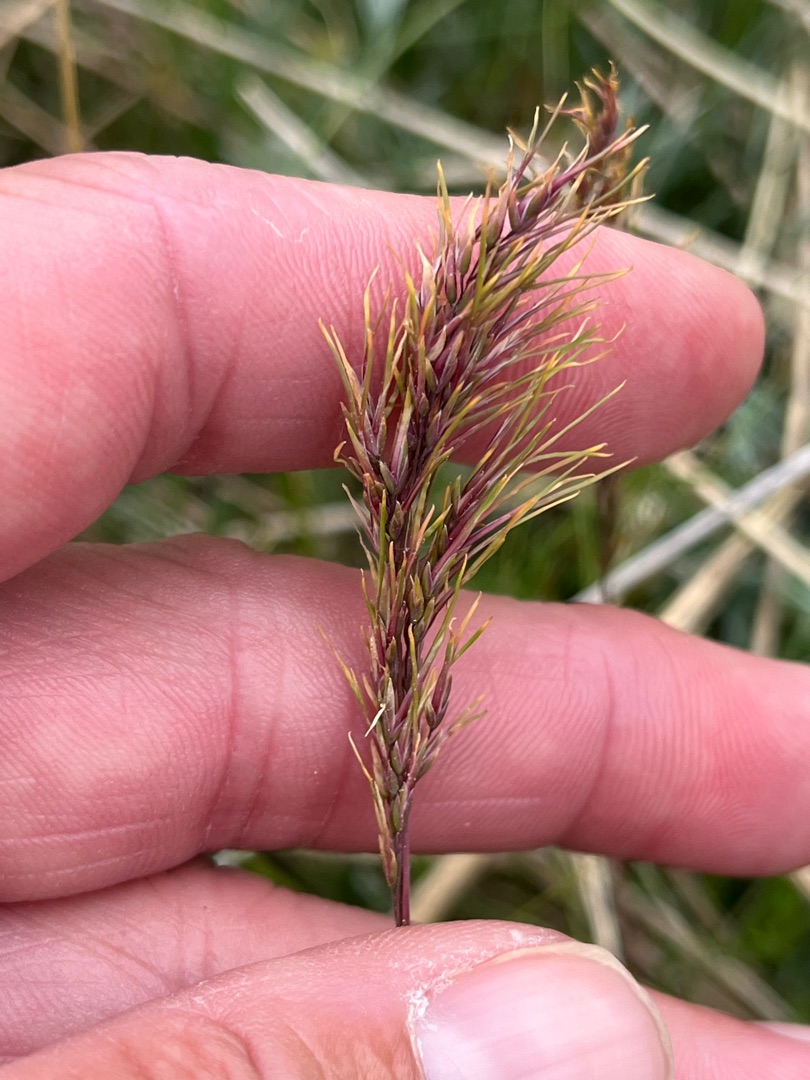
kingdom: Plantae
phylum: Tracheophyta
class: Liliopsida
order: Poales
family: Poaceae
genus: Poa
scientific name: Poa bulbosa
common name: Løg-rapgræs
